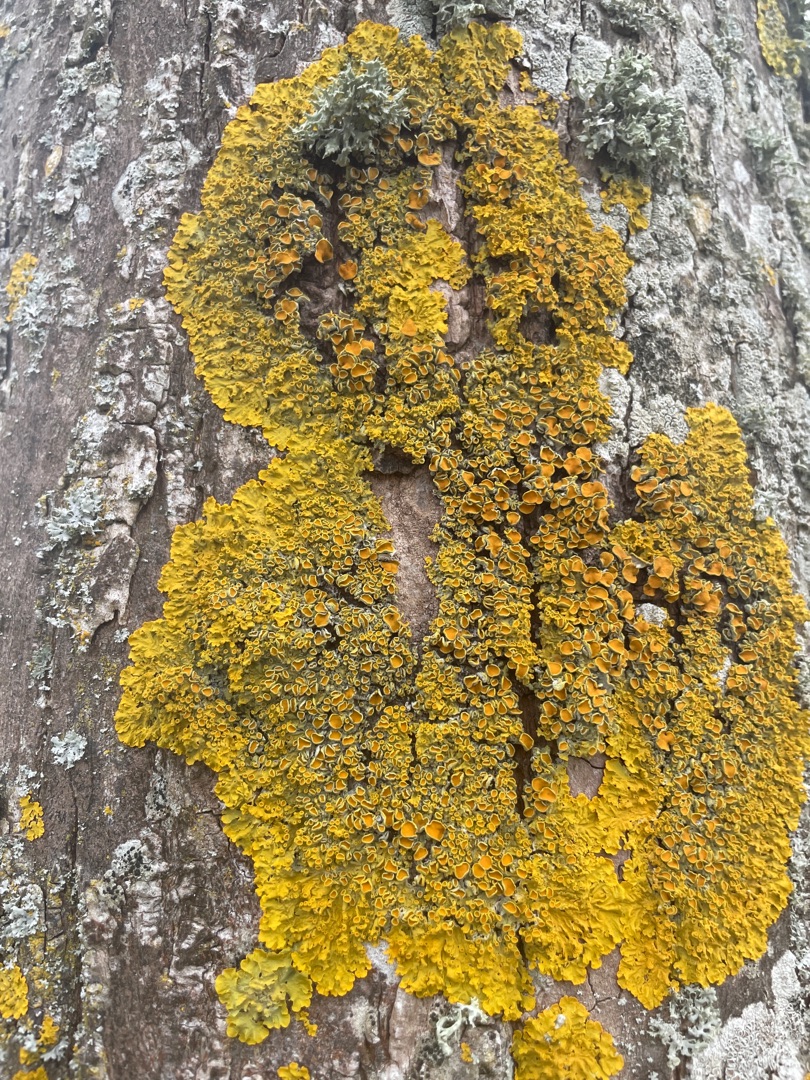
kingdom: Fungi
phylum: Ascomycota
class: Lecanoromycetes
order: Teloschistales
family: Teloschistaceae
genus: Xanthoria
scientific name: Xanthoria parietina
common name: Almindelig væggelav
